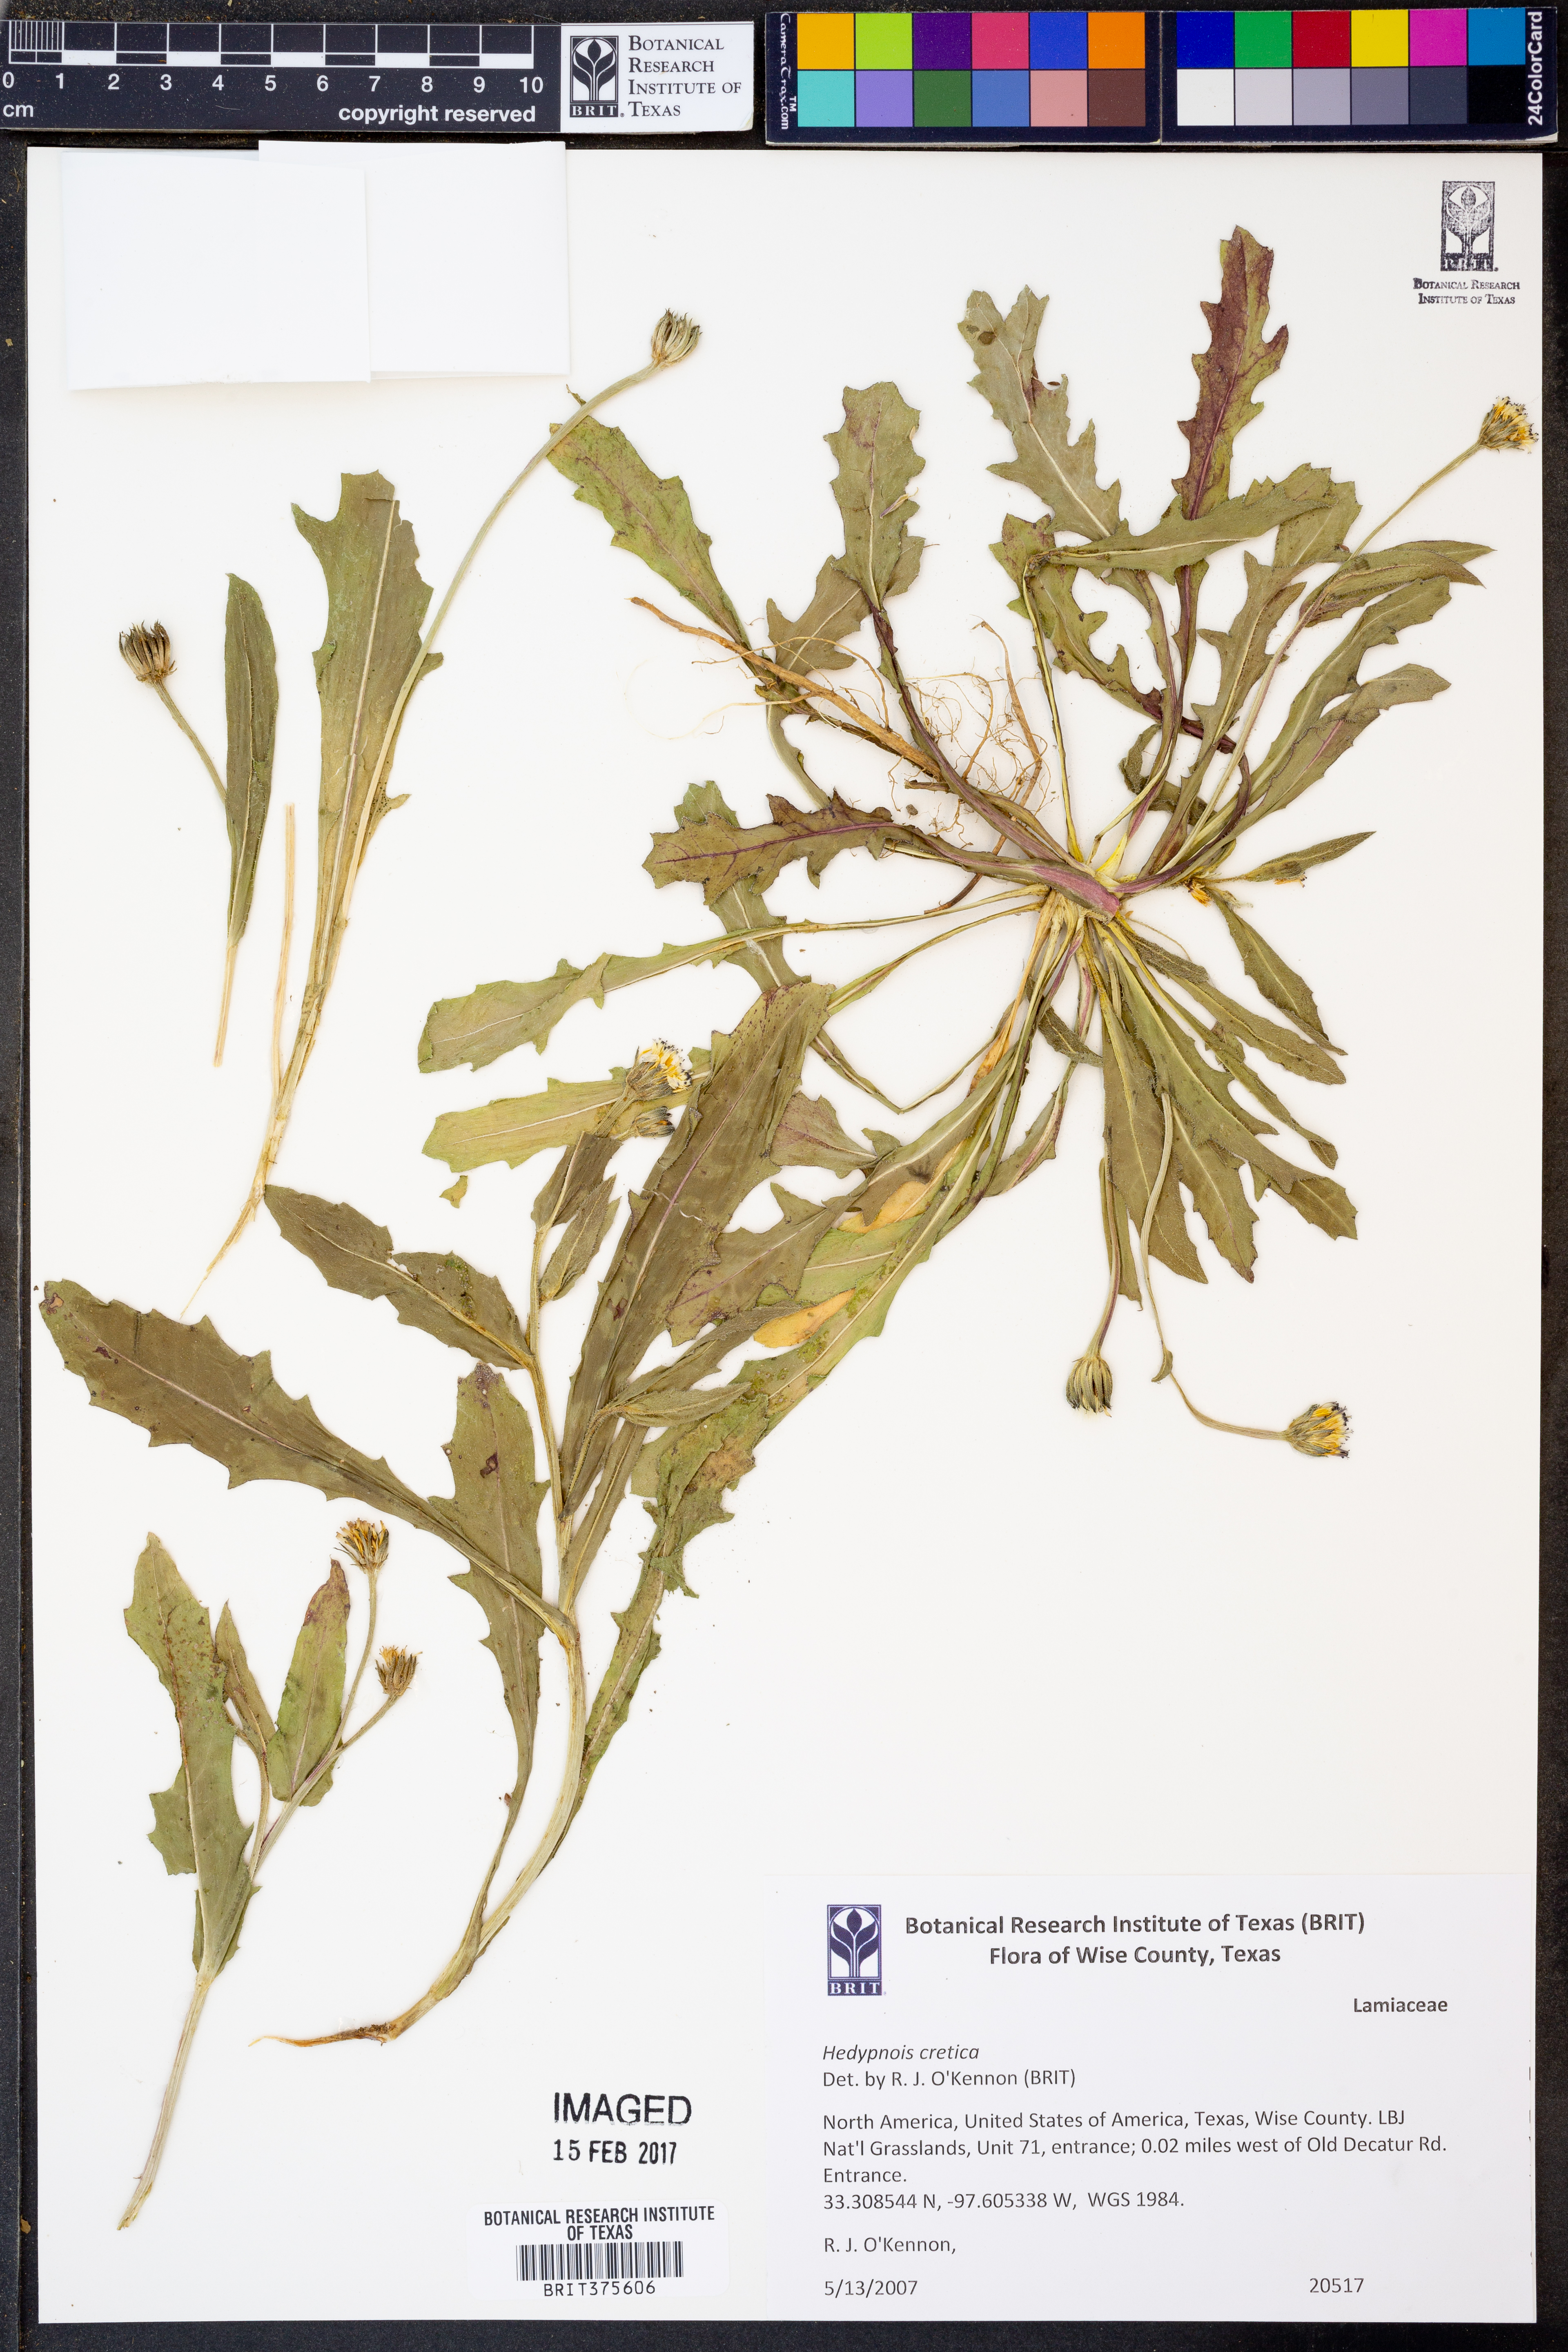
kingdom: Plantae
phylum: Tracheophyta
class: Magnoliopsida
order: Asterales
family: Asteraceae
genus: Hedypnois
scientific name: Hedypnois cretica
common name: Scaly hawkbit
